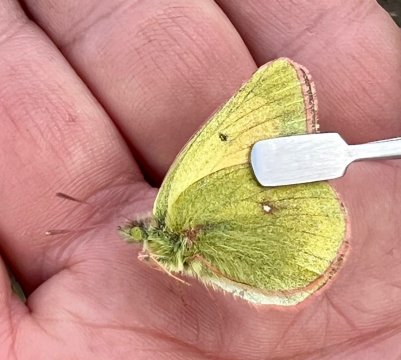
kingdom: Animalia
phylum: Arthropoda
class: Insecta
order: Lepidoptera
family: Pieridae
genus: Colias
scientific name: Colias canadensis
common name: Canadian Sulphur
